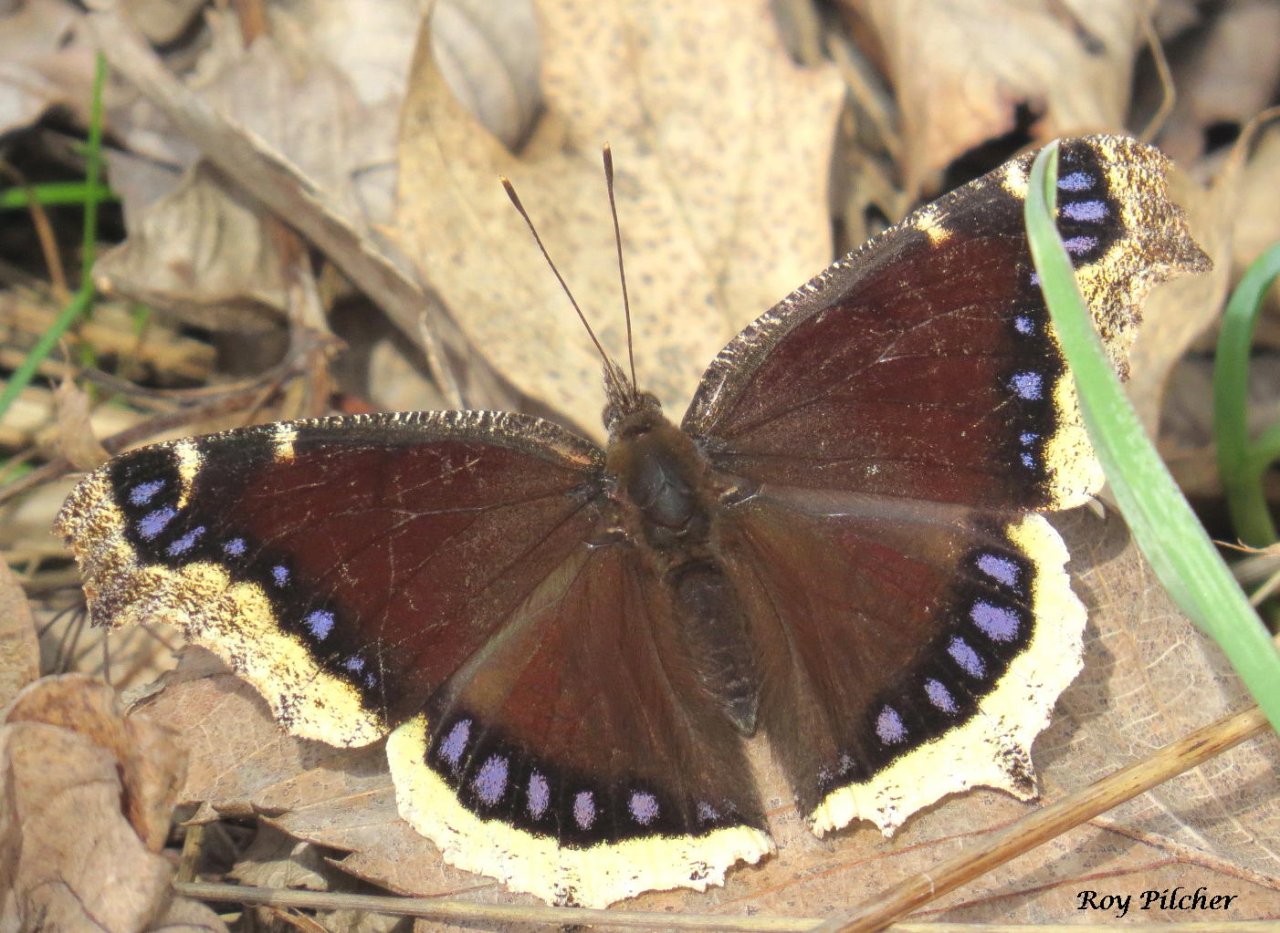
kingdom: Animalia
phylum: Arthropoda
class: Insecta
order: Lepidoptera
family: Nymphalidae
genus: Nymphalis
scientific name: Nymphalis antiopa
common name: Mourning Cloak
